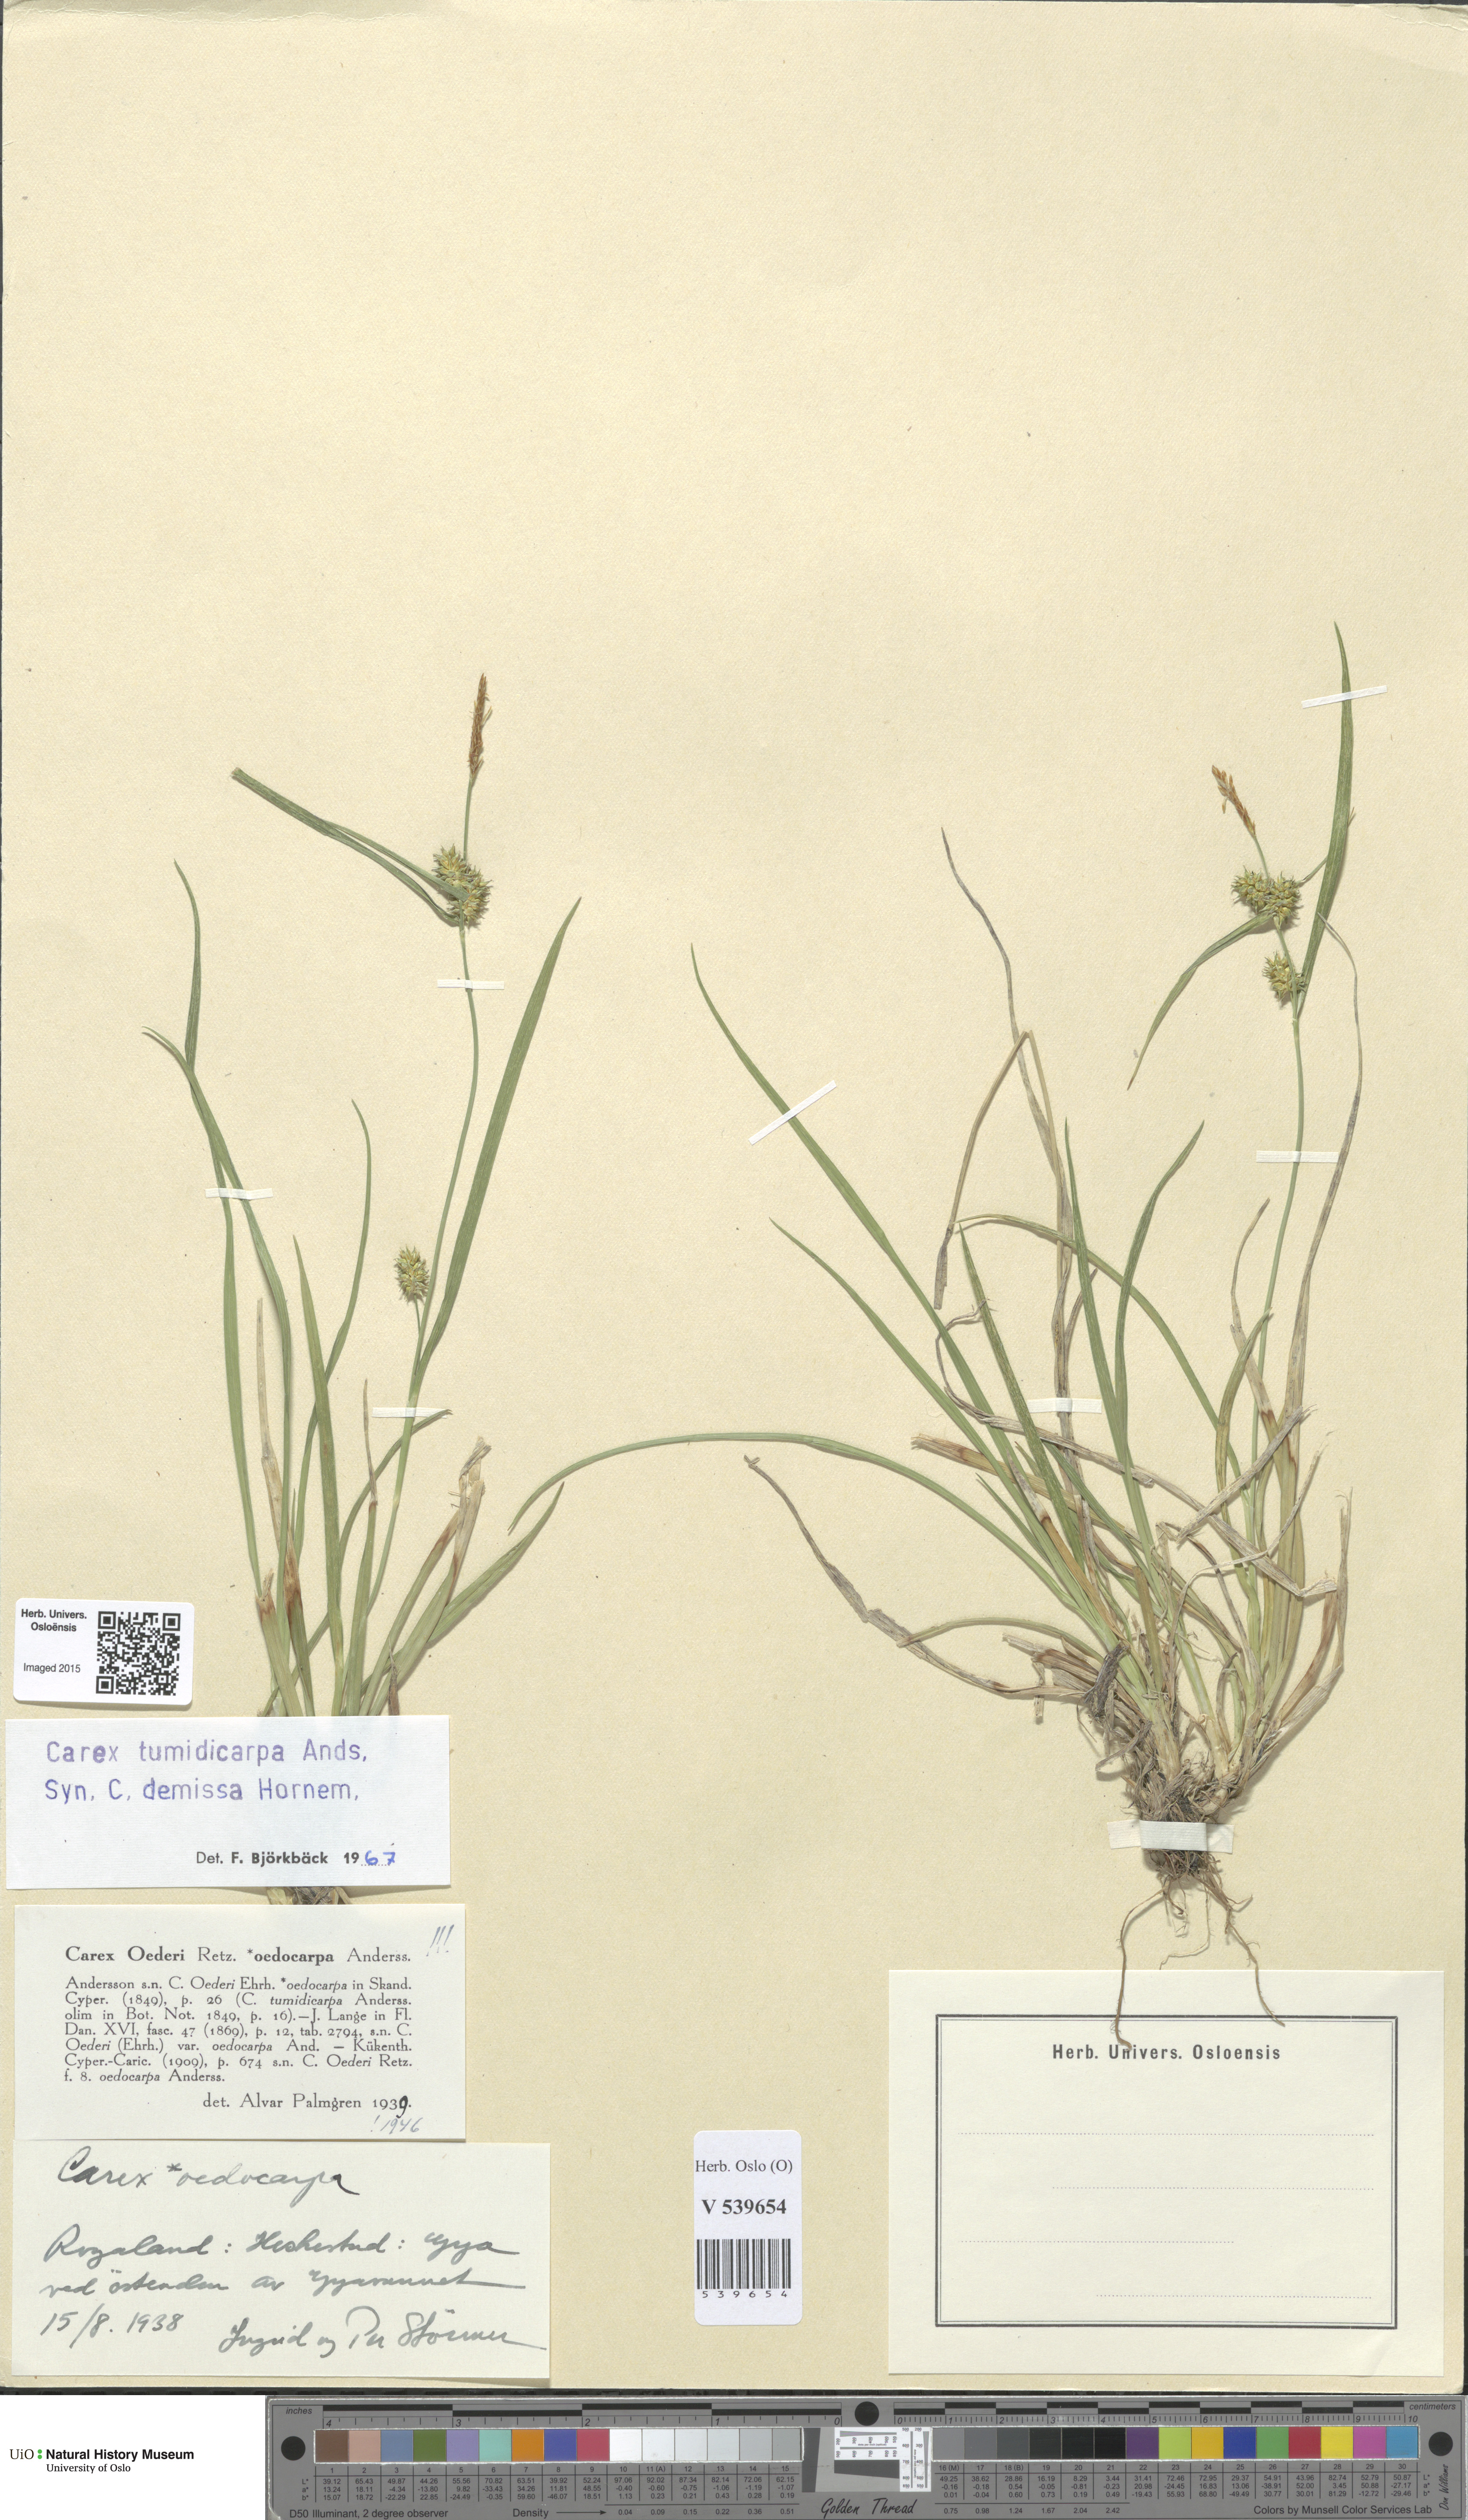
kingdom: Plantae
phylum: Tracheophyta
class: Liliopsida
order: Poales
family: Cyperaceae
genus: Carex
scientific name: Carex demissa
